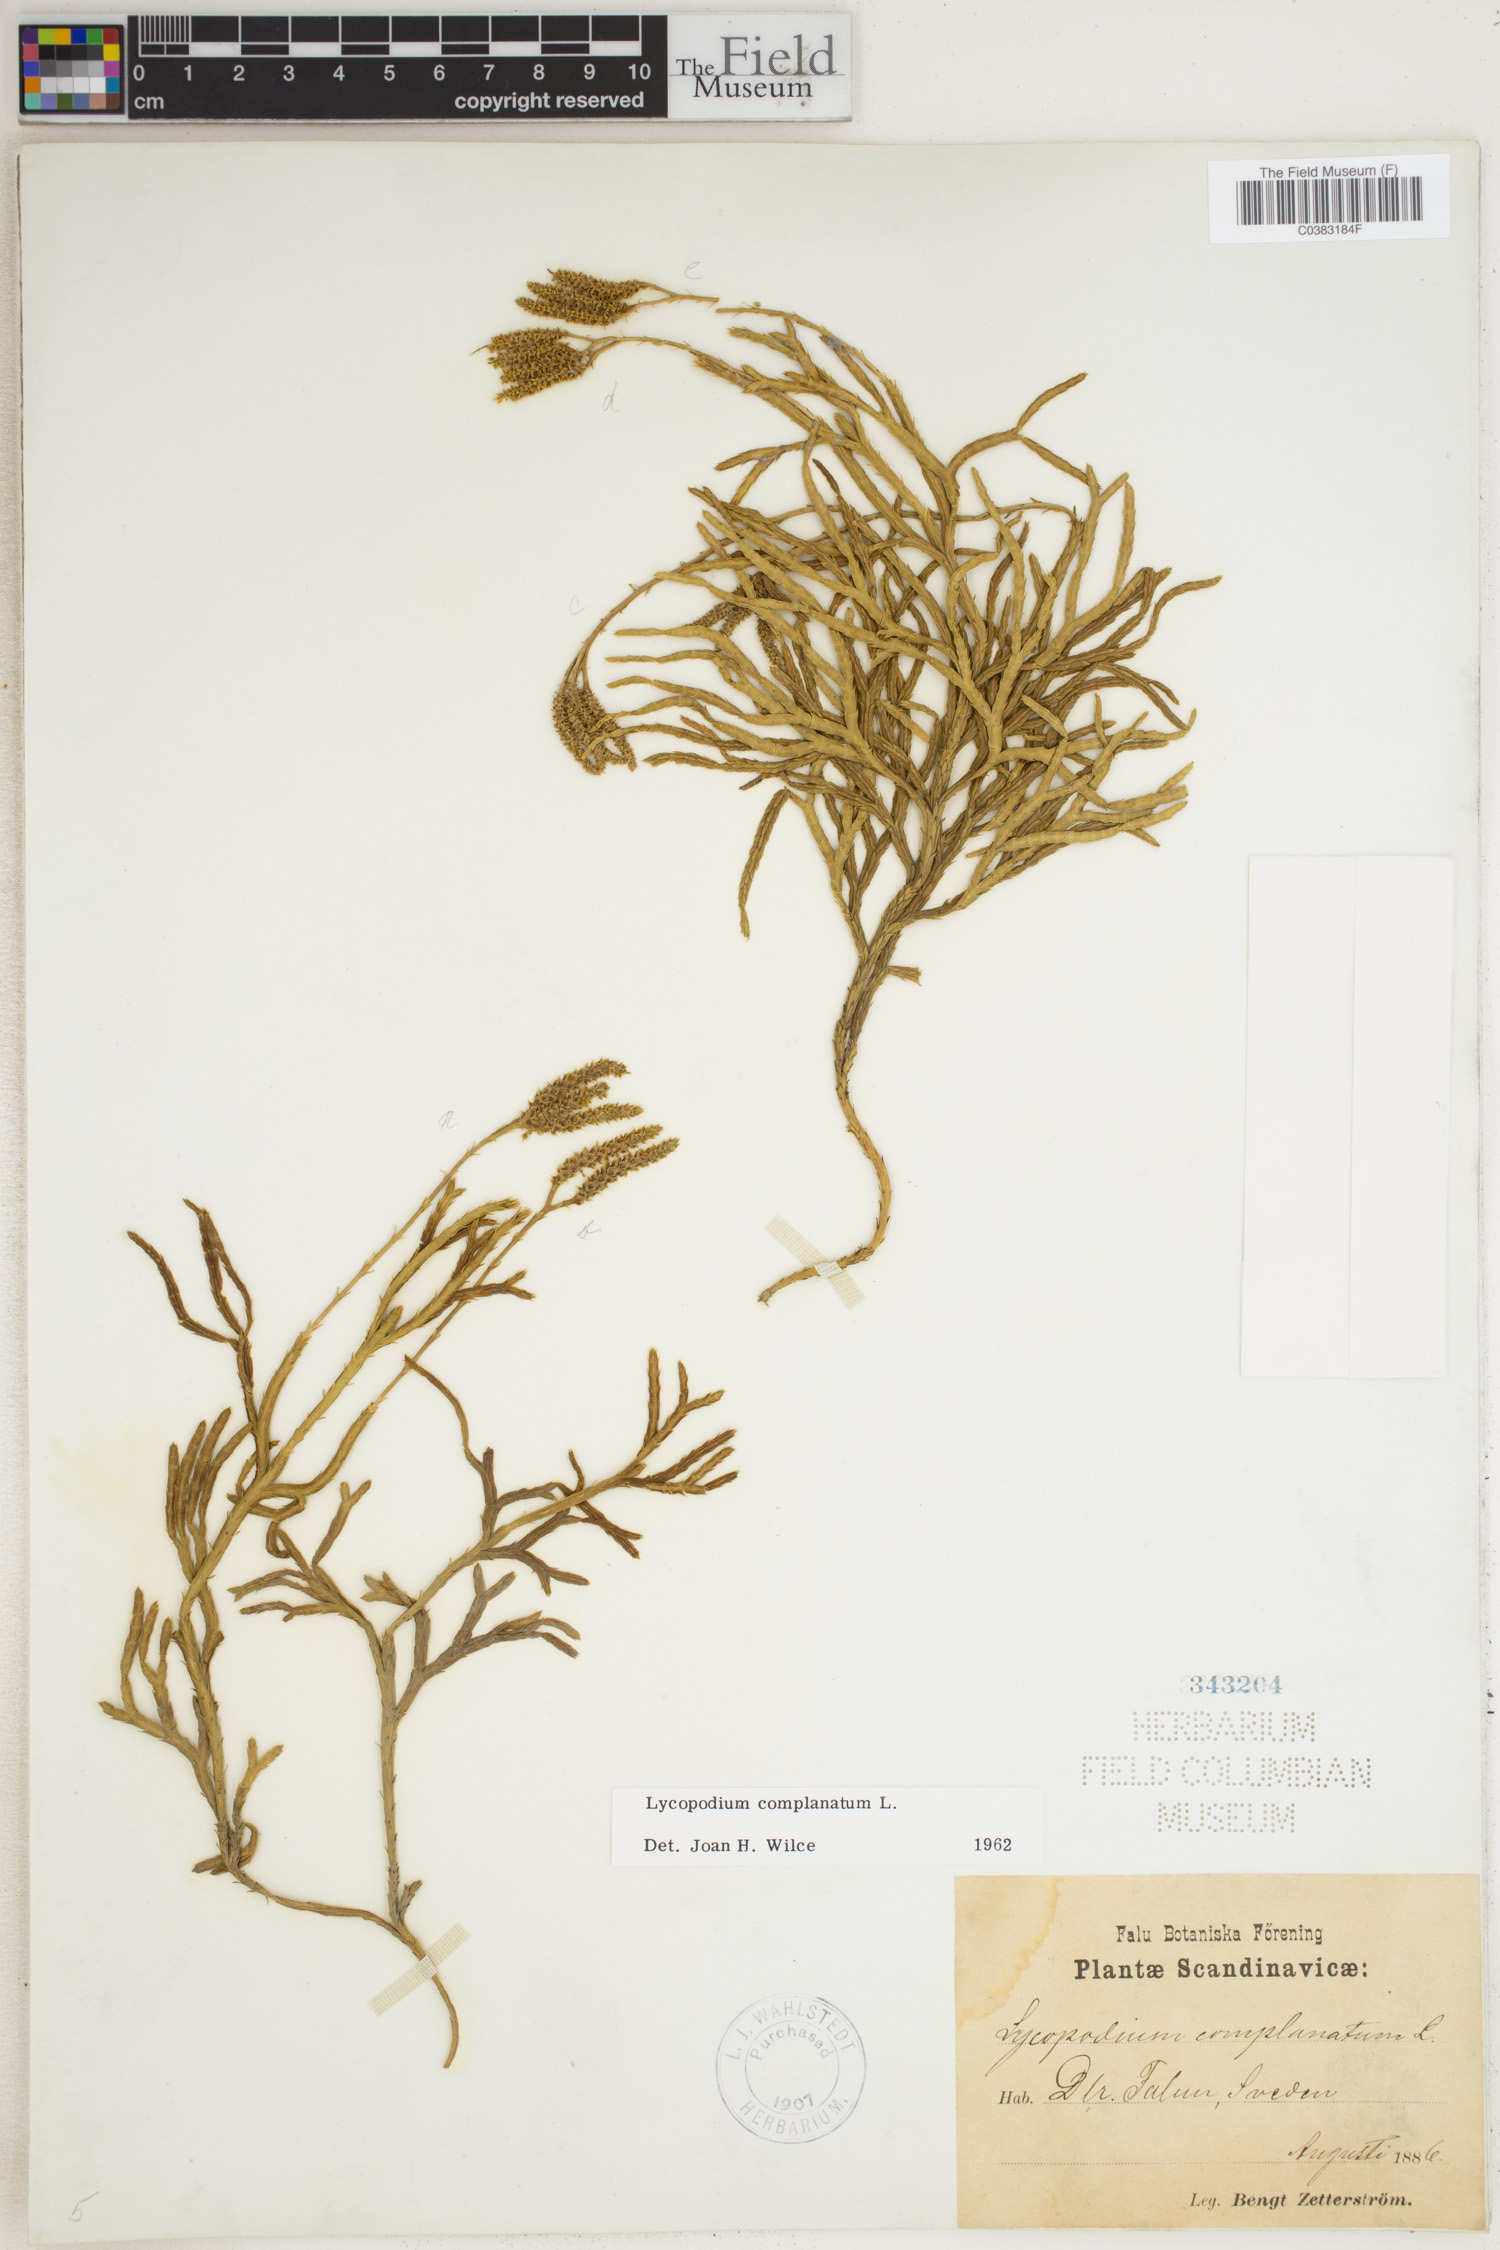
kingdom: Plantae
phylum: Tracheophyta
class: Lycopodiopsida
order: Lycopodiales
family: Lycopodiaceae
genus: Diphasiastrum
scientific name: Diphasiastrum complanatum
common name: Northern running-pine
